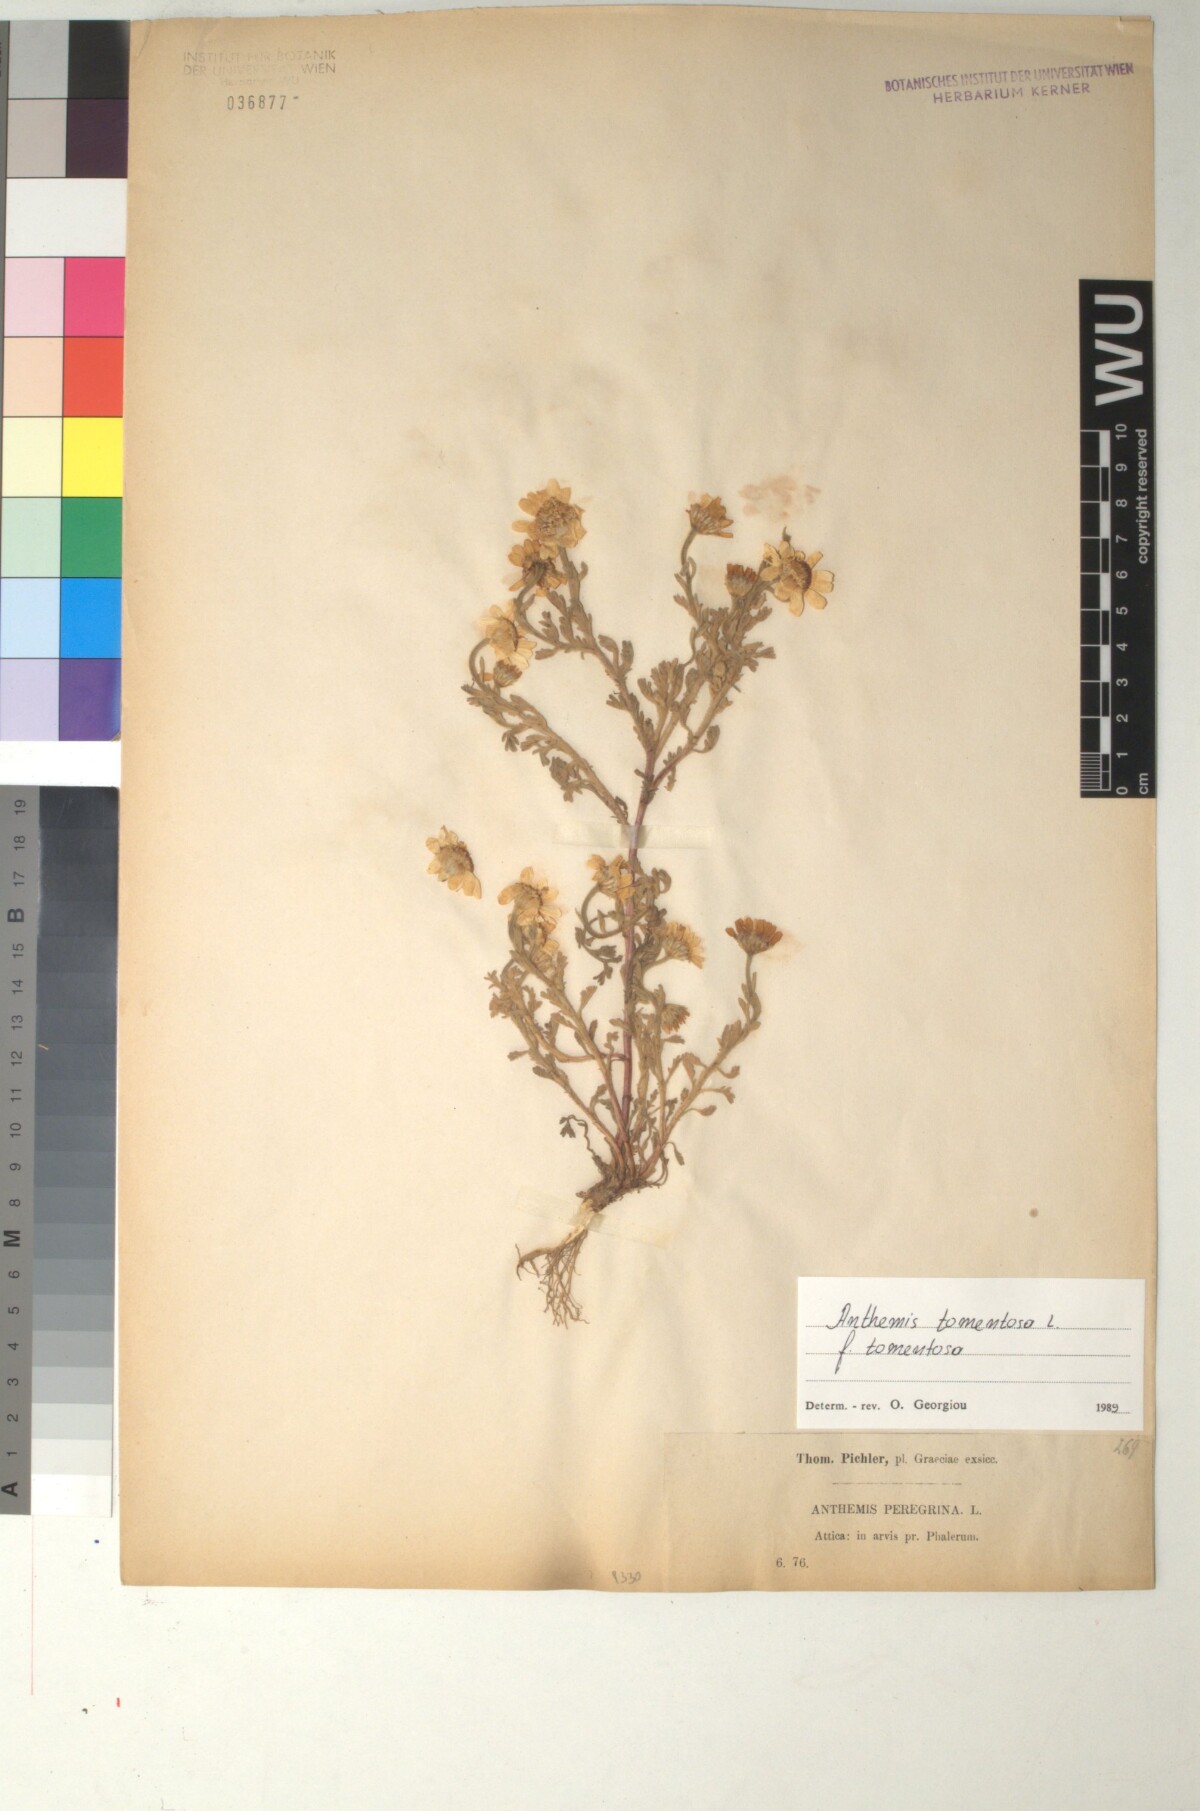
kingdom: Plantae
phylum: Tracheophyta
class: Magnoliopsida
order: Asterales
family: Asteraceae
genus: Anthemis
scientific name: Anthemis tomentosa
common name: Woolly chamomile
